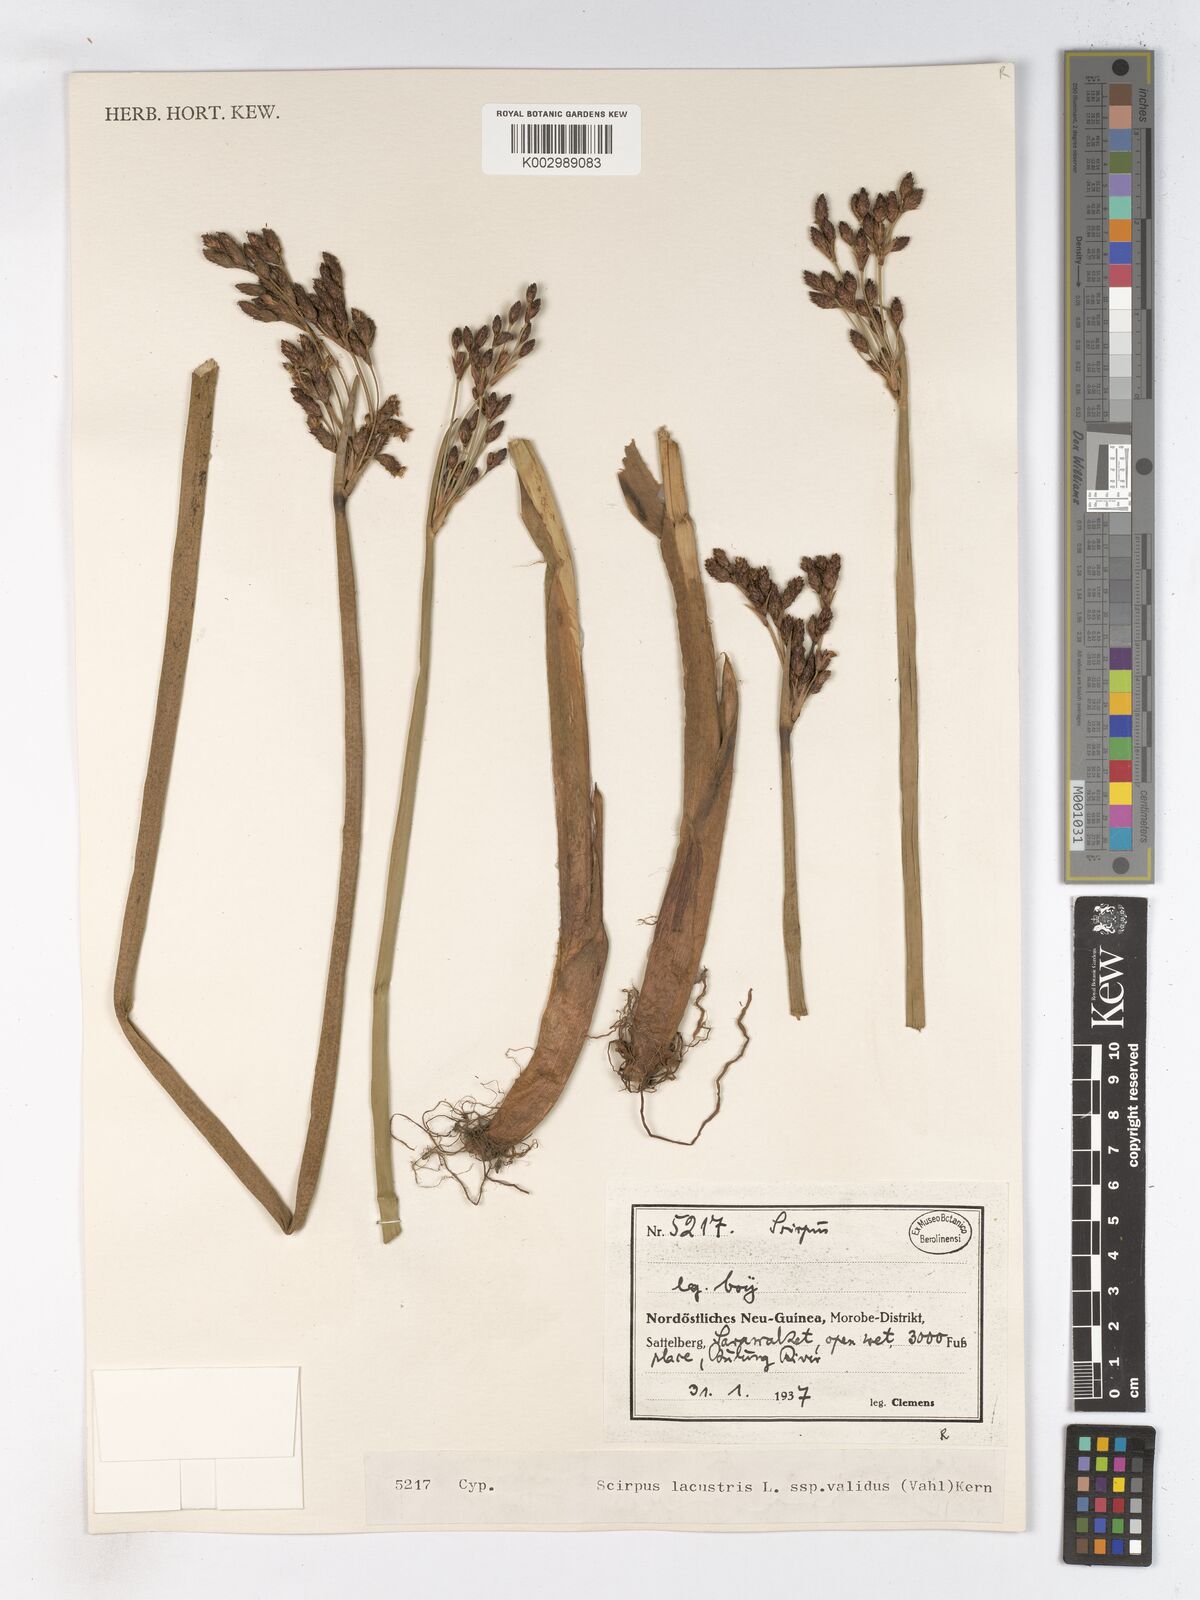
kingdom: Plantae
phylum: Tracheophyta
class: Liliopsida
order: Poales
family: Cyperaceae
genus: Schoenoplectus
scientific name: Schoenoplectus lacustris
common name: Common club-rush
